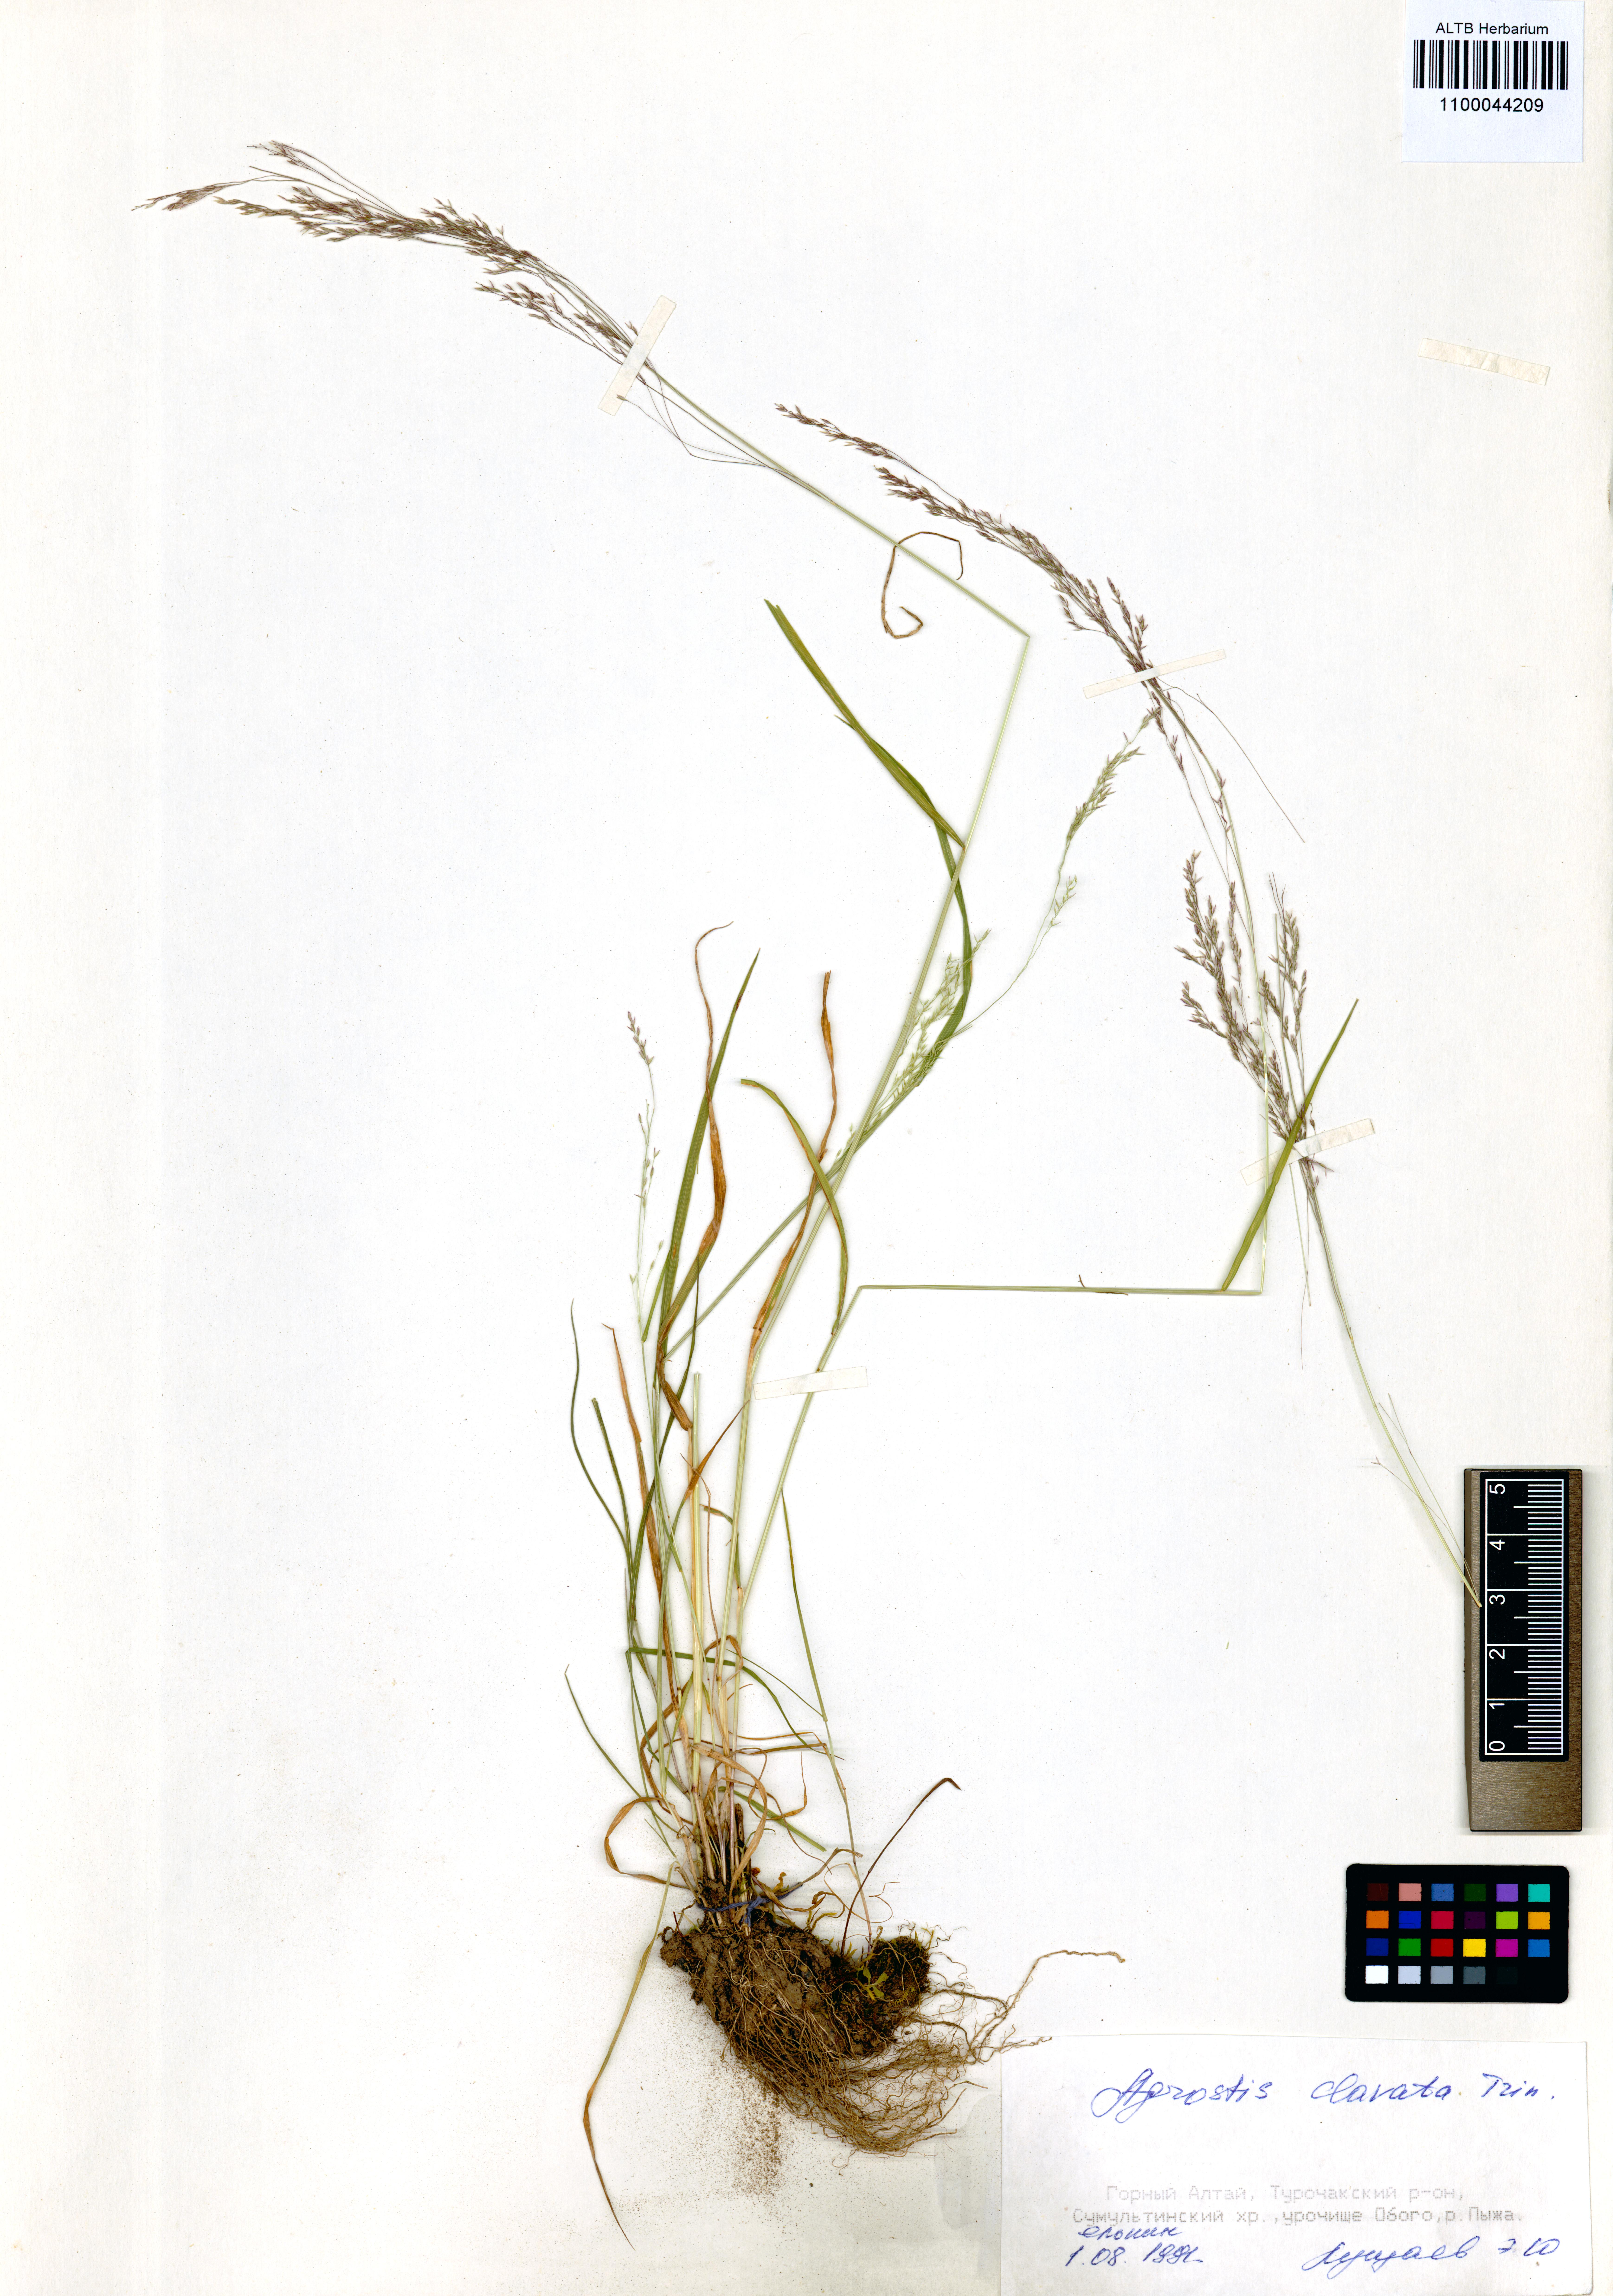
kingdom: Plantae
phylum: Tracheophyta
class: Liliopsida
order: Poales
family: Poaceae
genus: Agrostis
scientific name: Agrostis clavata
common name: Clavate bent
